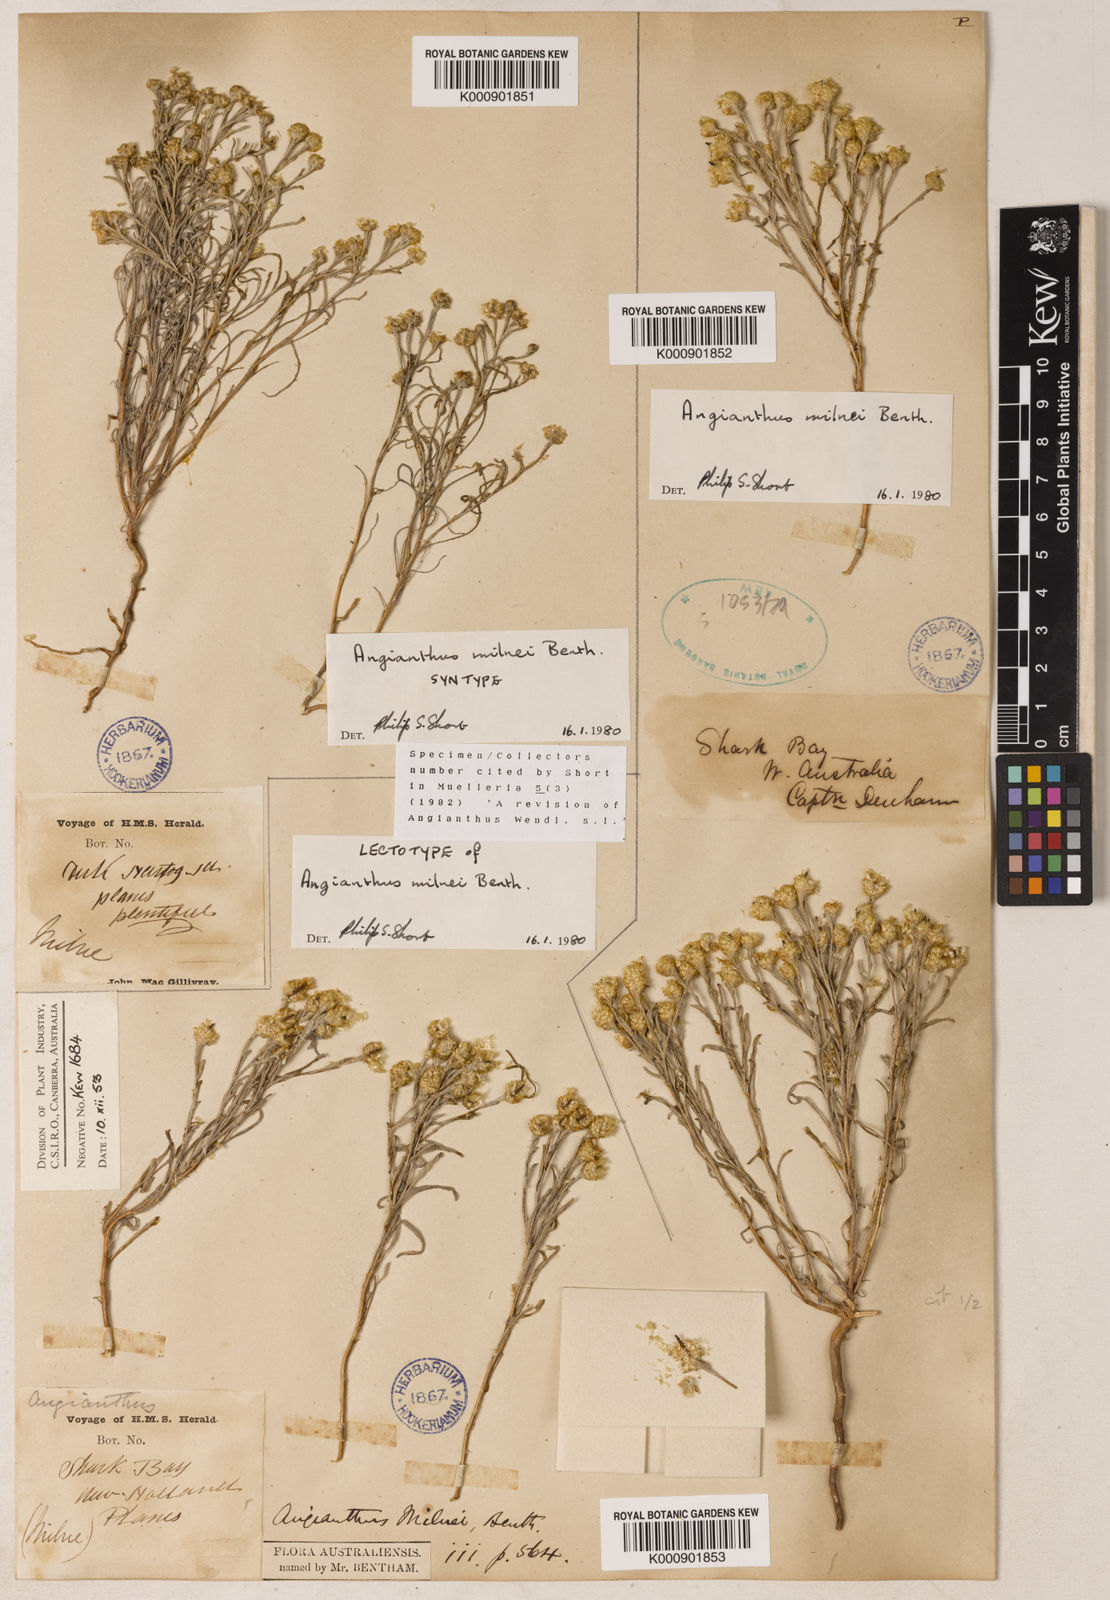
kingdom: Plantae
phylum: Tracheophyta
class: Magnoliopsida
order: Asterales
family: Asteraceae
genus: Angianthus
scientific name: Angianthus milnei
